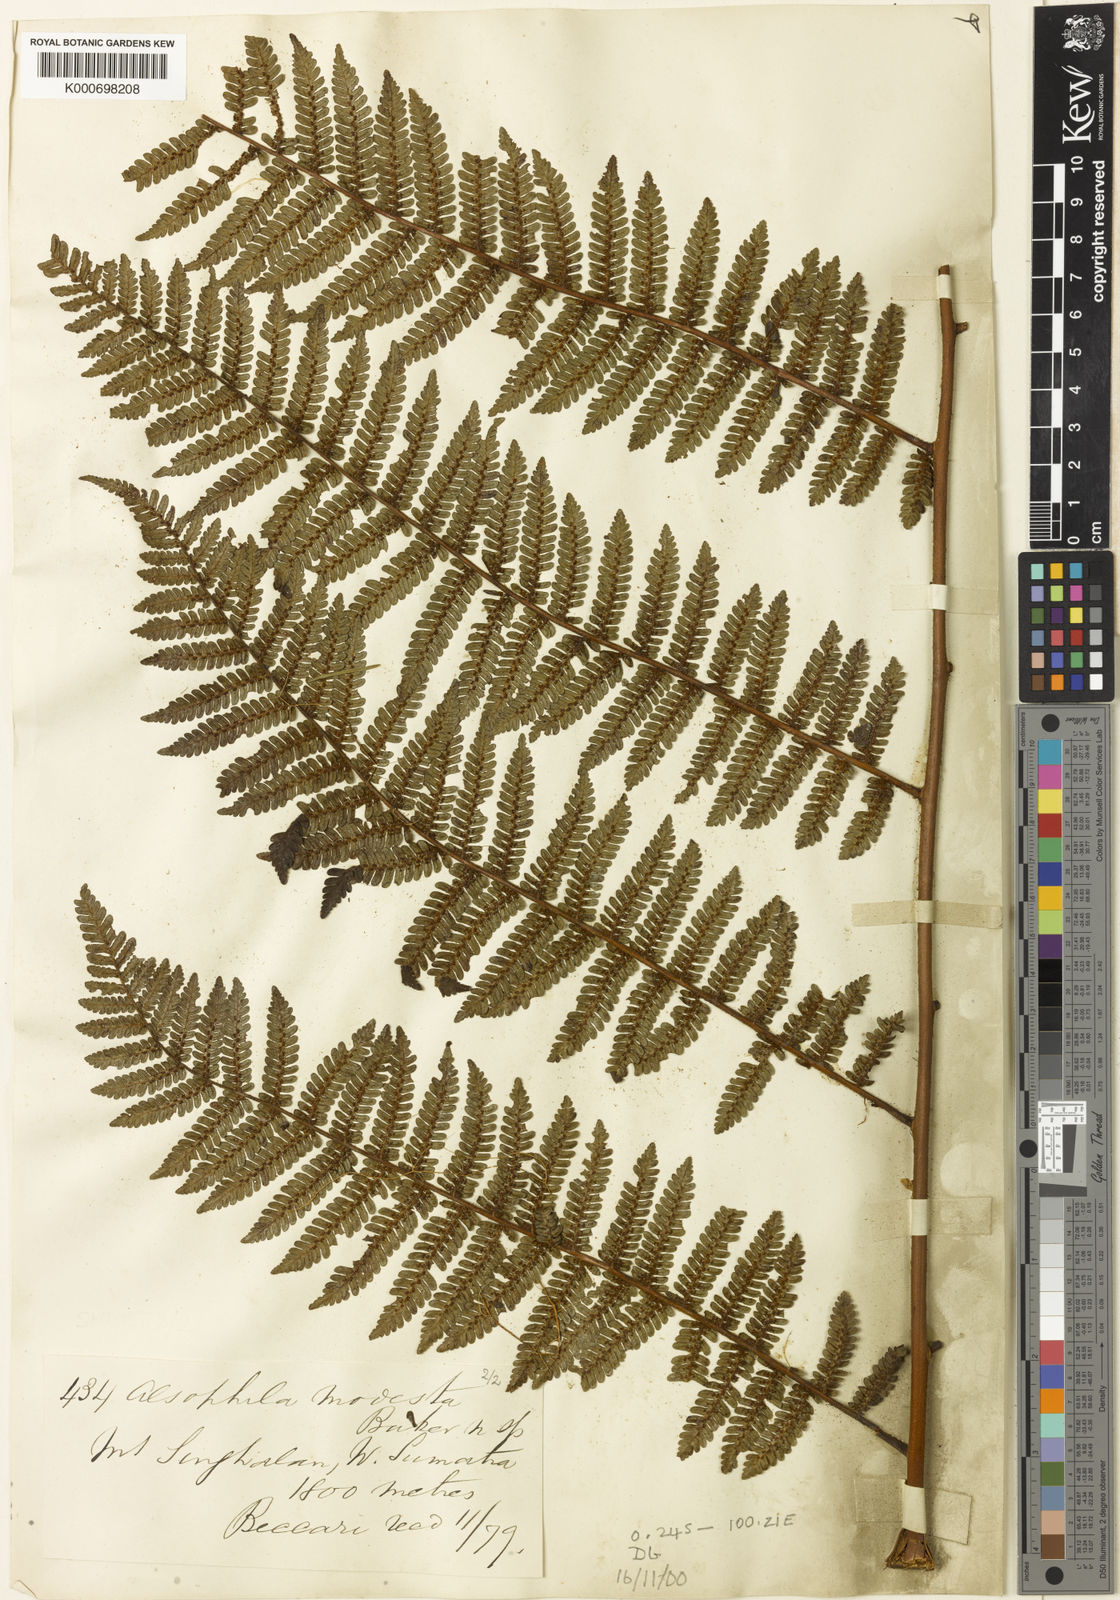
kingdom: Plantae
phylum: Tracheophyta
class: Polypodiopsida
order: Cyatheales
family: Cyatheaceae
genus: Alsophila
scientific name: Alsophila modesta
